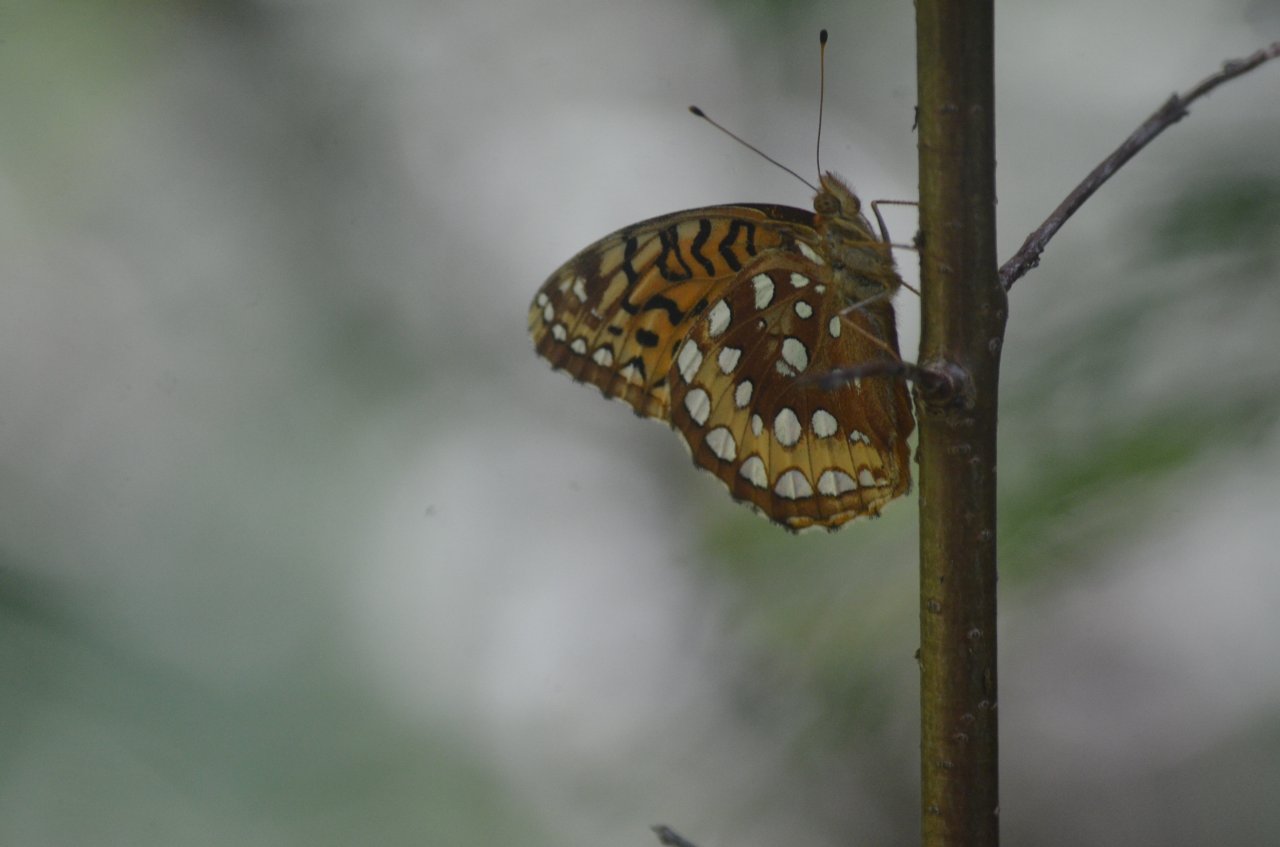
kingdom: Animalia
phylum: Arthropoda
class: Insecta
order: Lepidoptera
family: Nymphalidae
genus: Speyeria
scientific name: Speyeria cybele
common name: Great Spangled Fritillary
